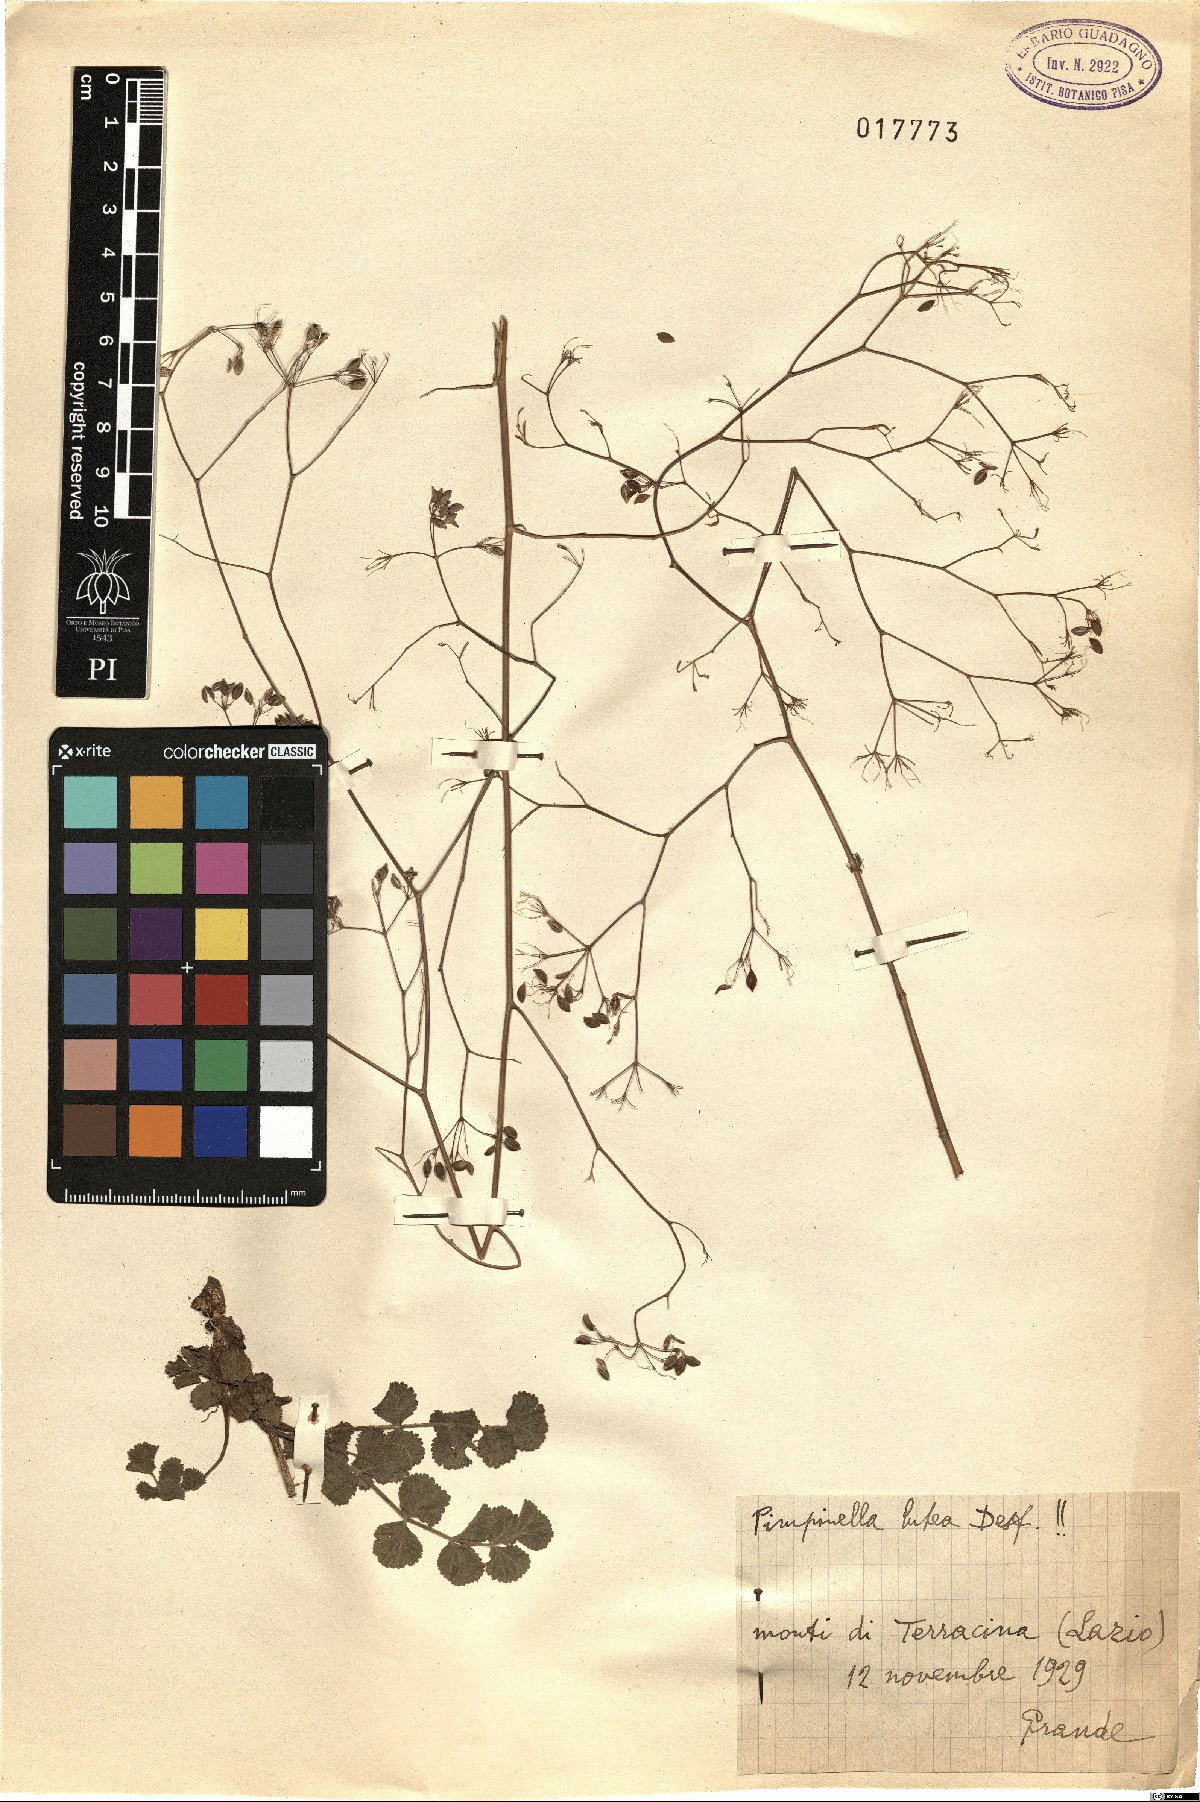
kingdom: Plantae
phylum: Tracheophyta
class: Magnoliopsida
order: Apiales
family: Apiaceae
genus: Pimpinella
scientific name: Pimpinella lutea
